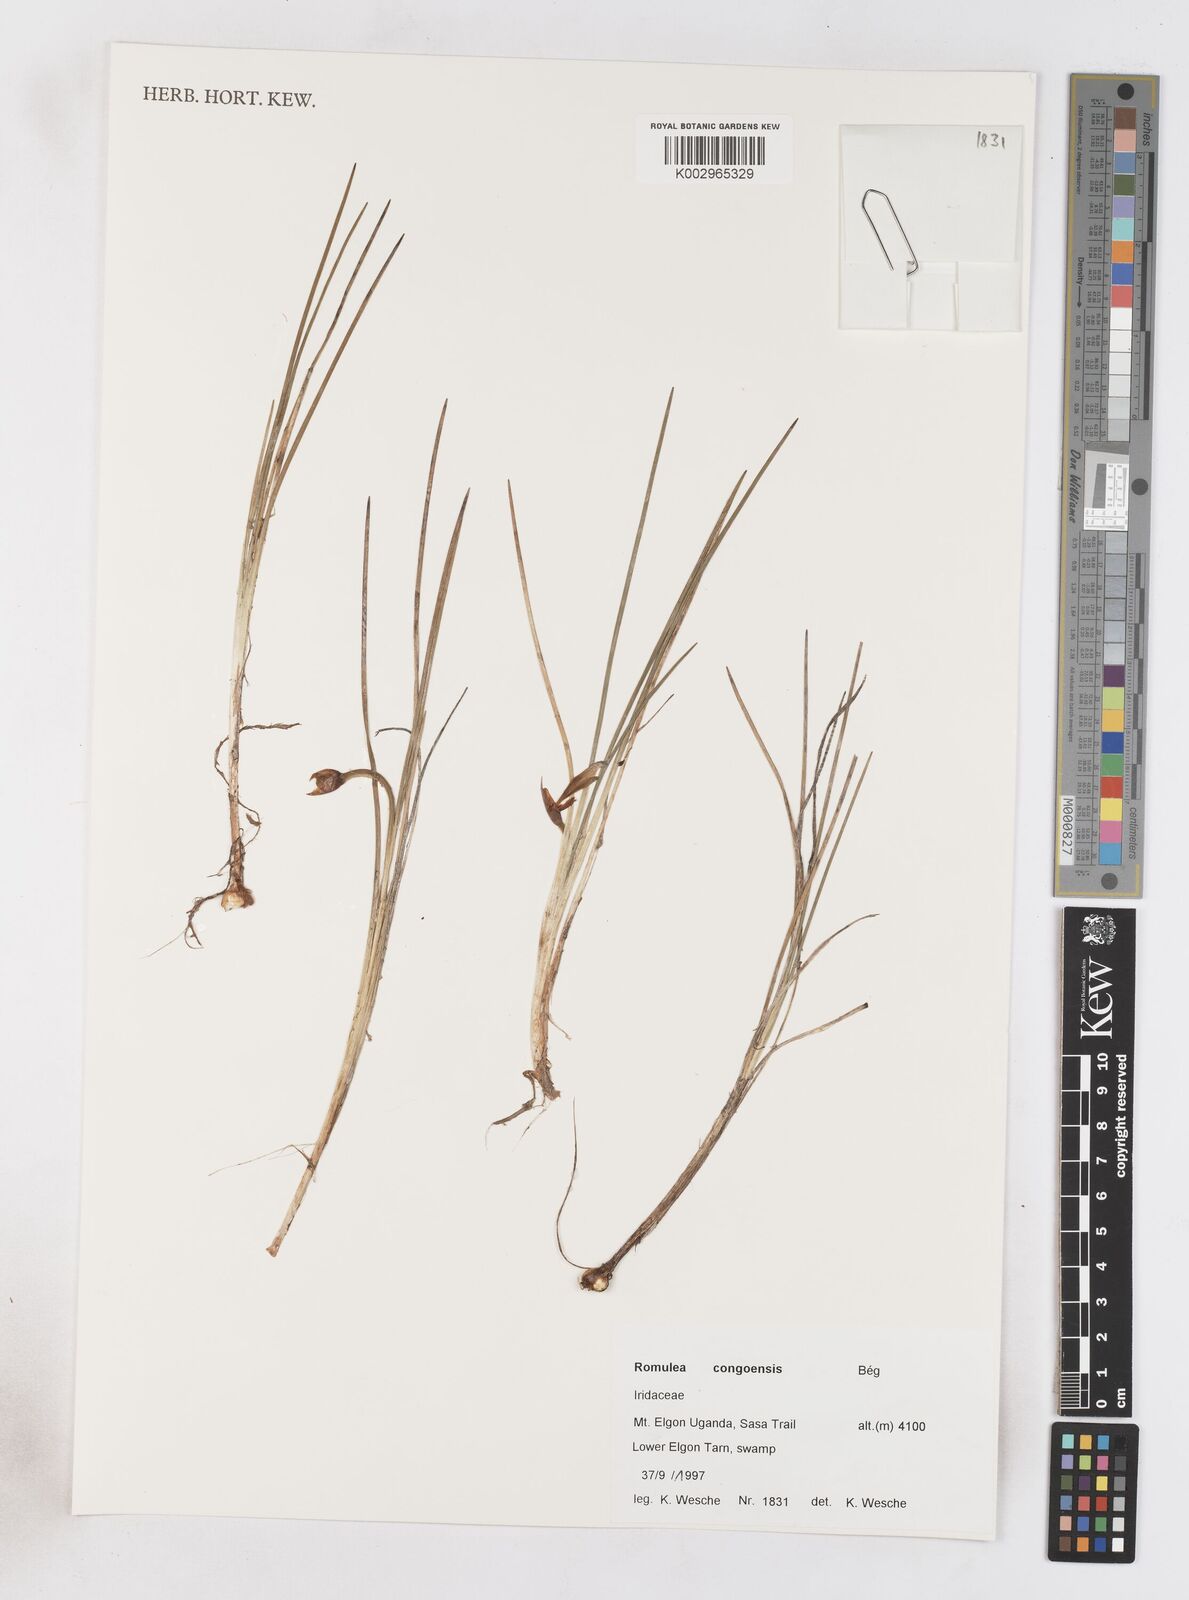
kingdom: Plantae
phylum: Tracheophyta
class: Liliopsida
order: Asparagales
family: Iridaceae
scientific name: Iridaceae
